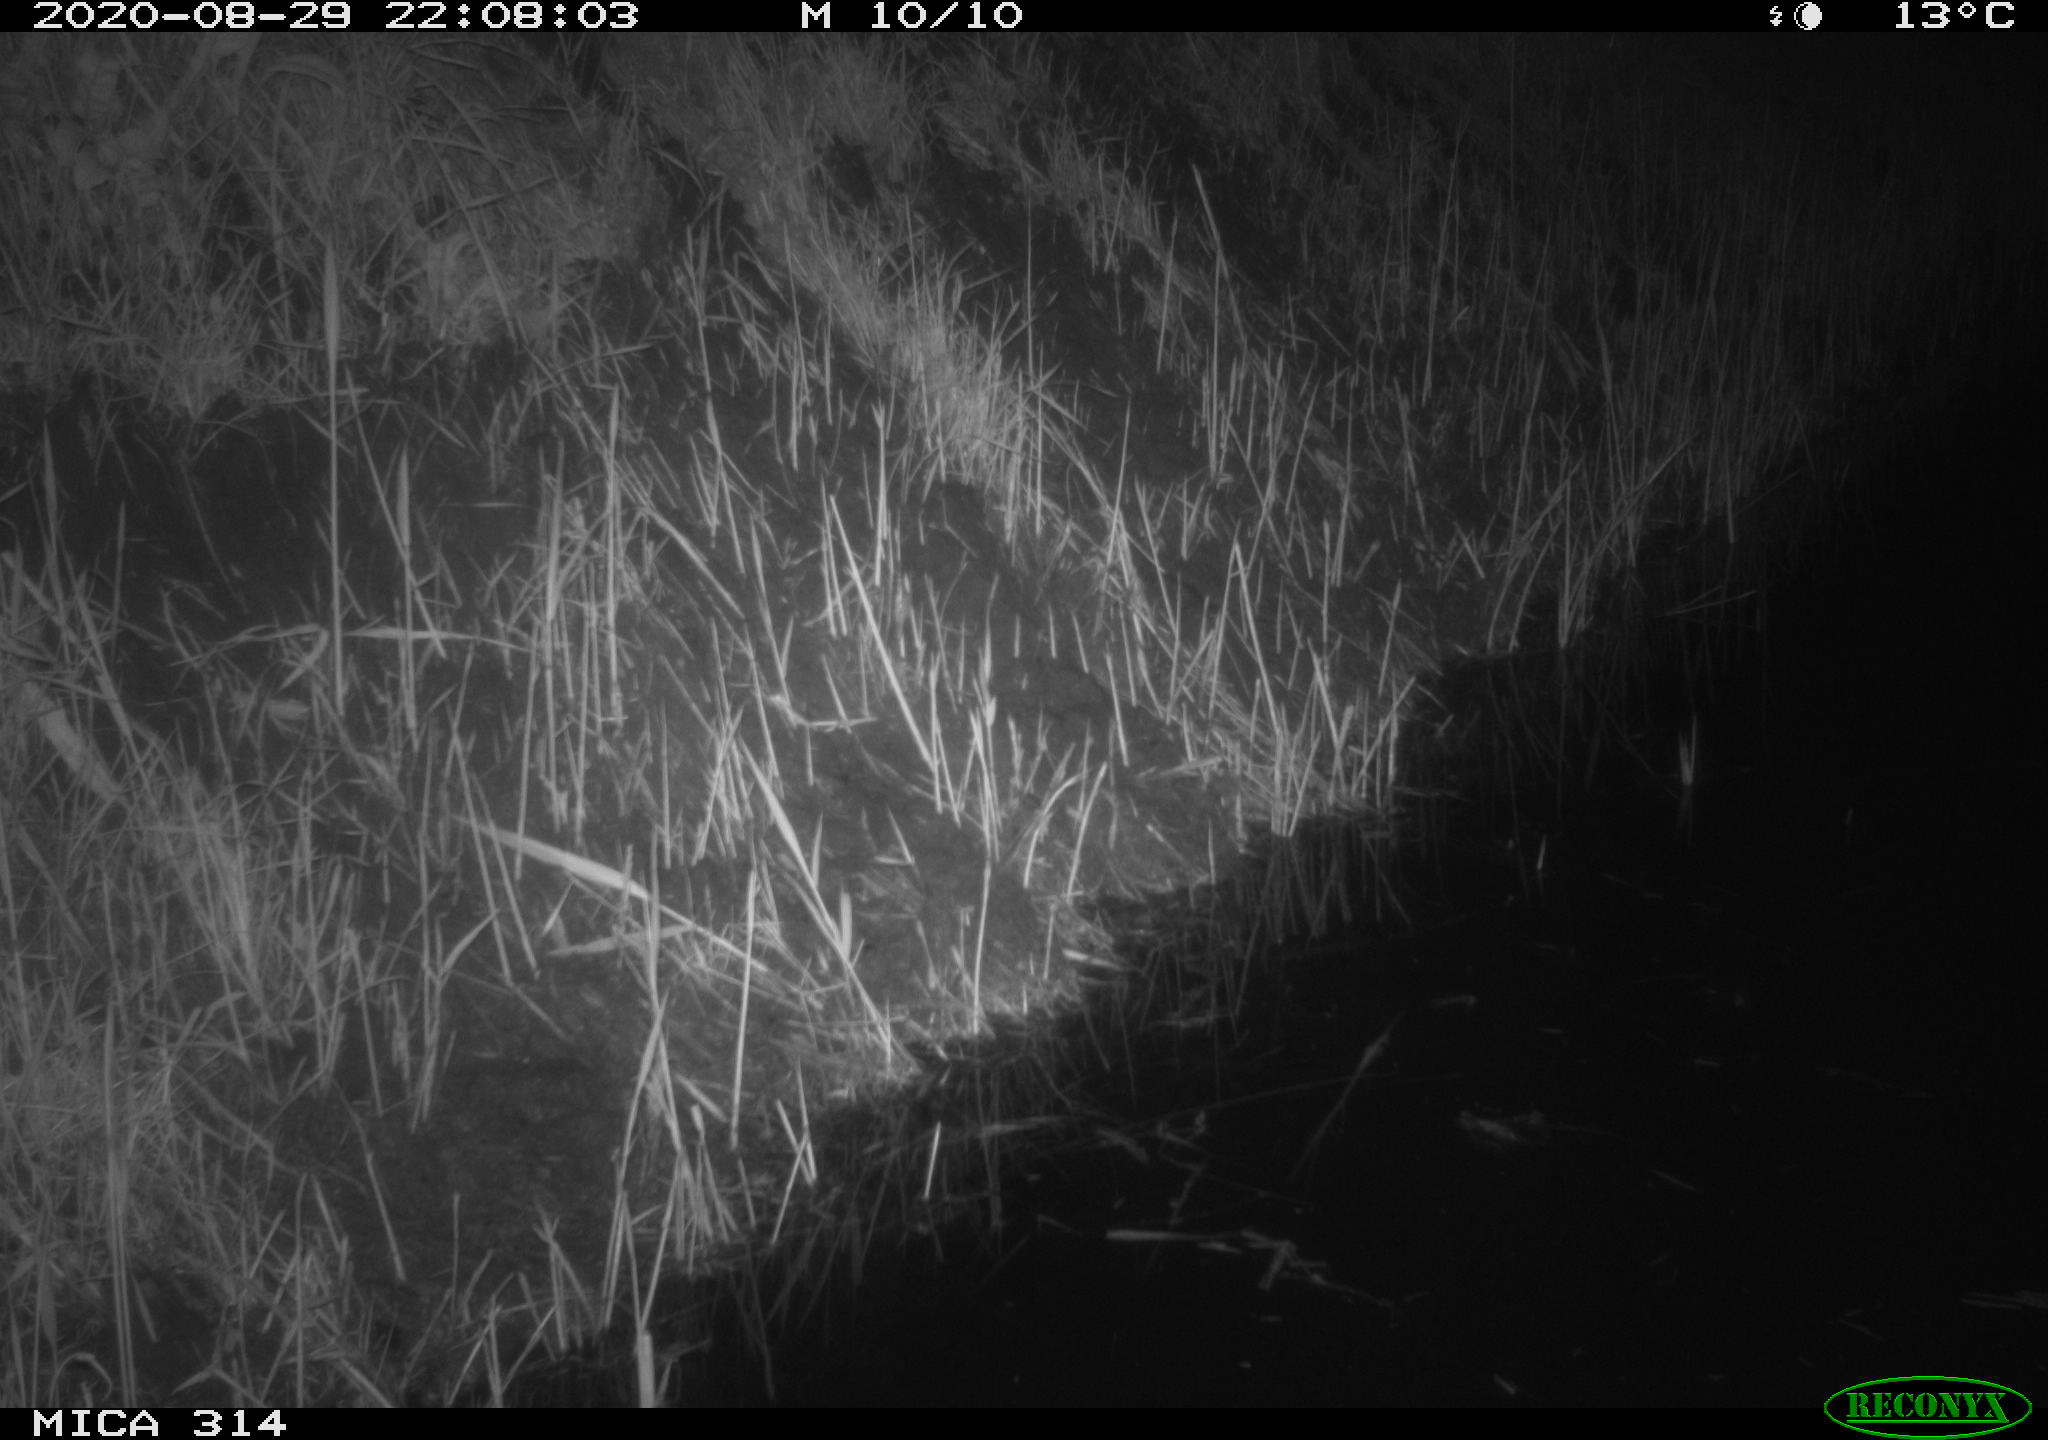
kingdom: Animalia
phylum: Chordata
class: Mammalia
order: Rodentia
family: Muridae
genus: Rattus
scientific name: Rattus norvegicus
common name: Brown rat
